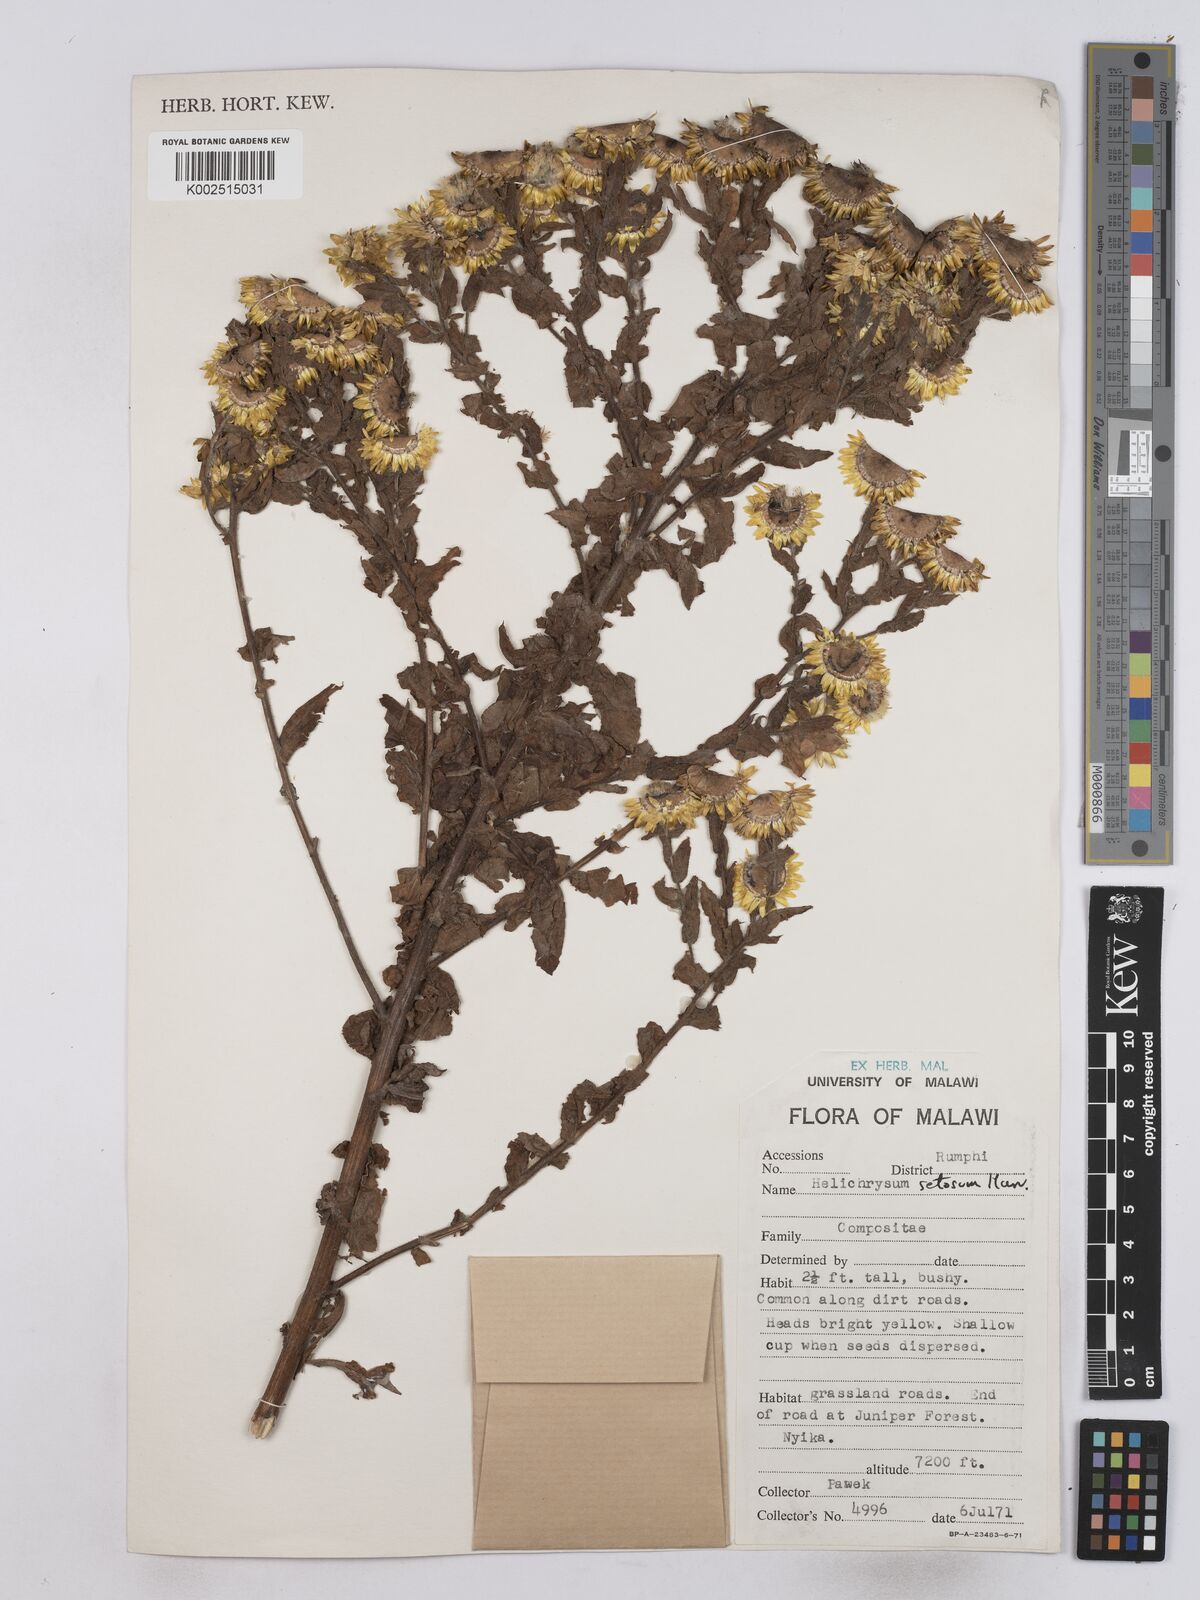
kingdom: Plantae
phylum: Tracheophyta
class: Magnoliopsida
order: Asterales
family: Asteraceae
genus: Helichrysum
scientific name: Helichrysum setosum
